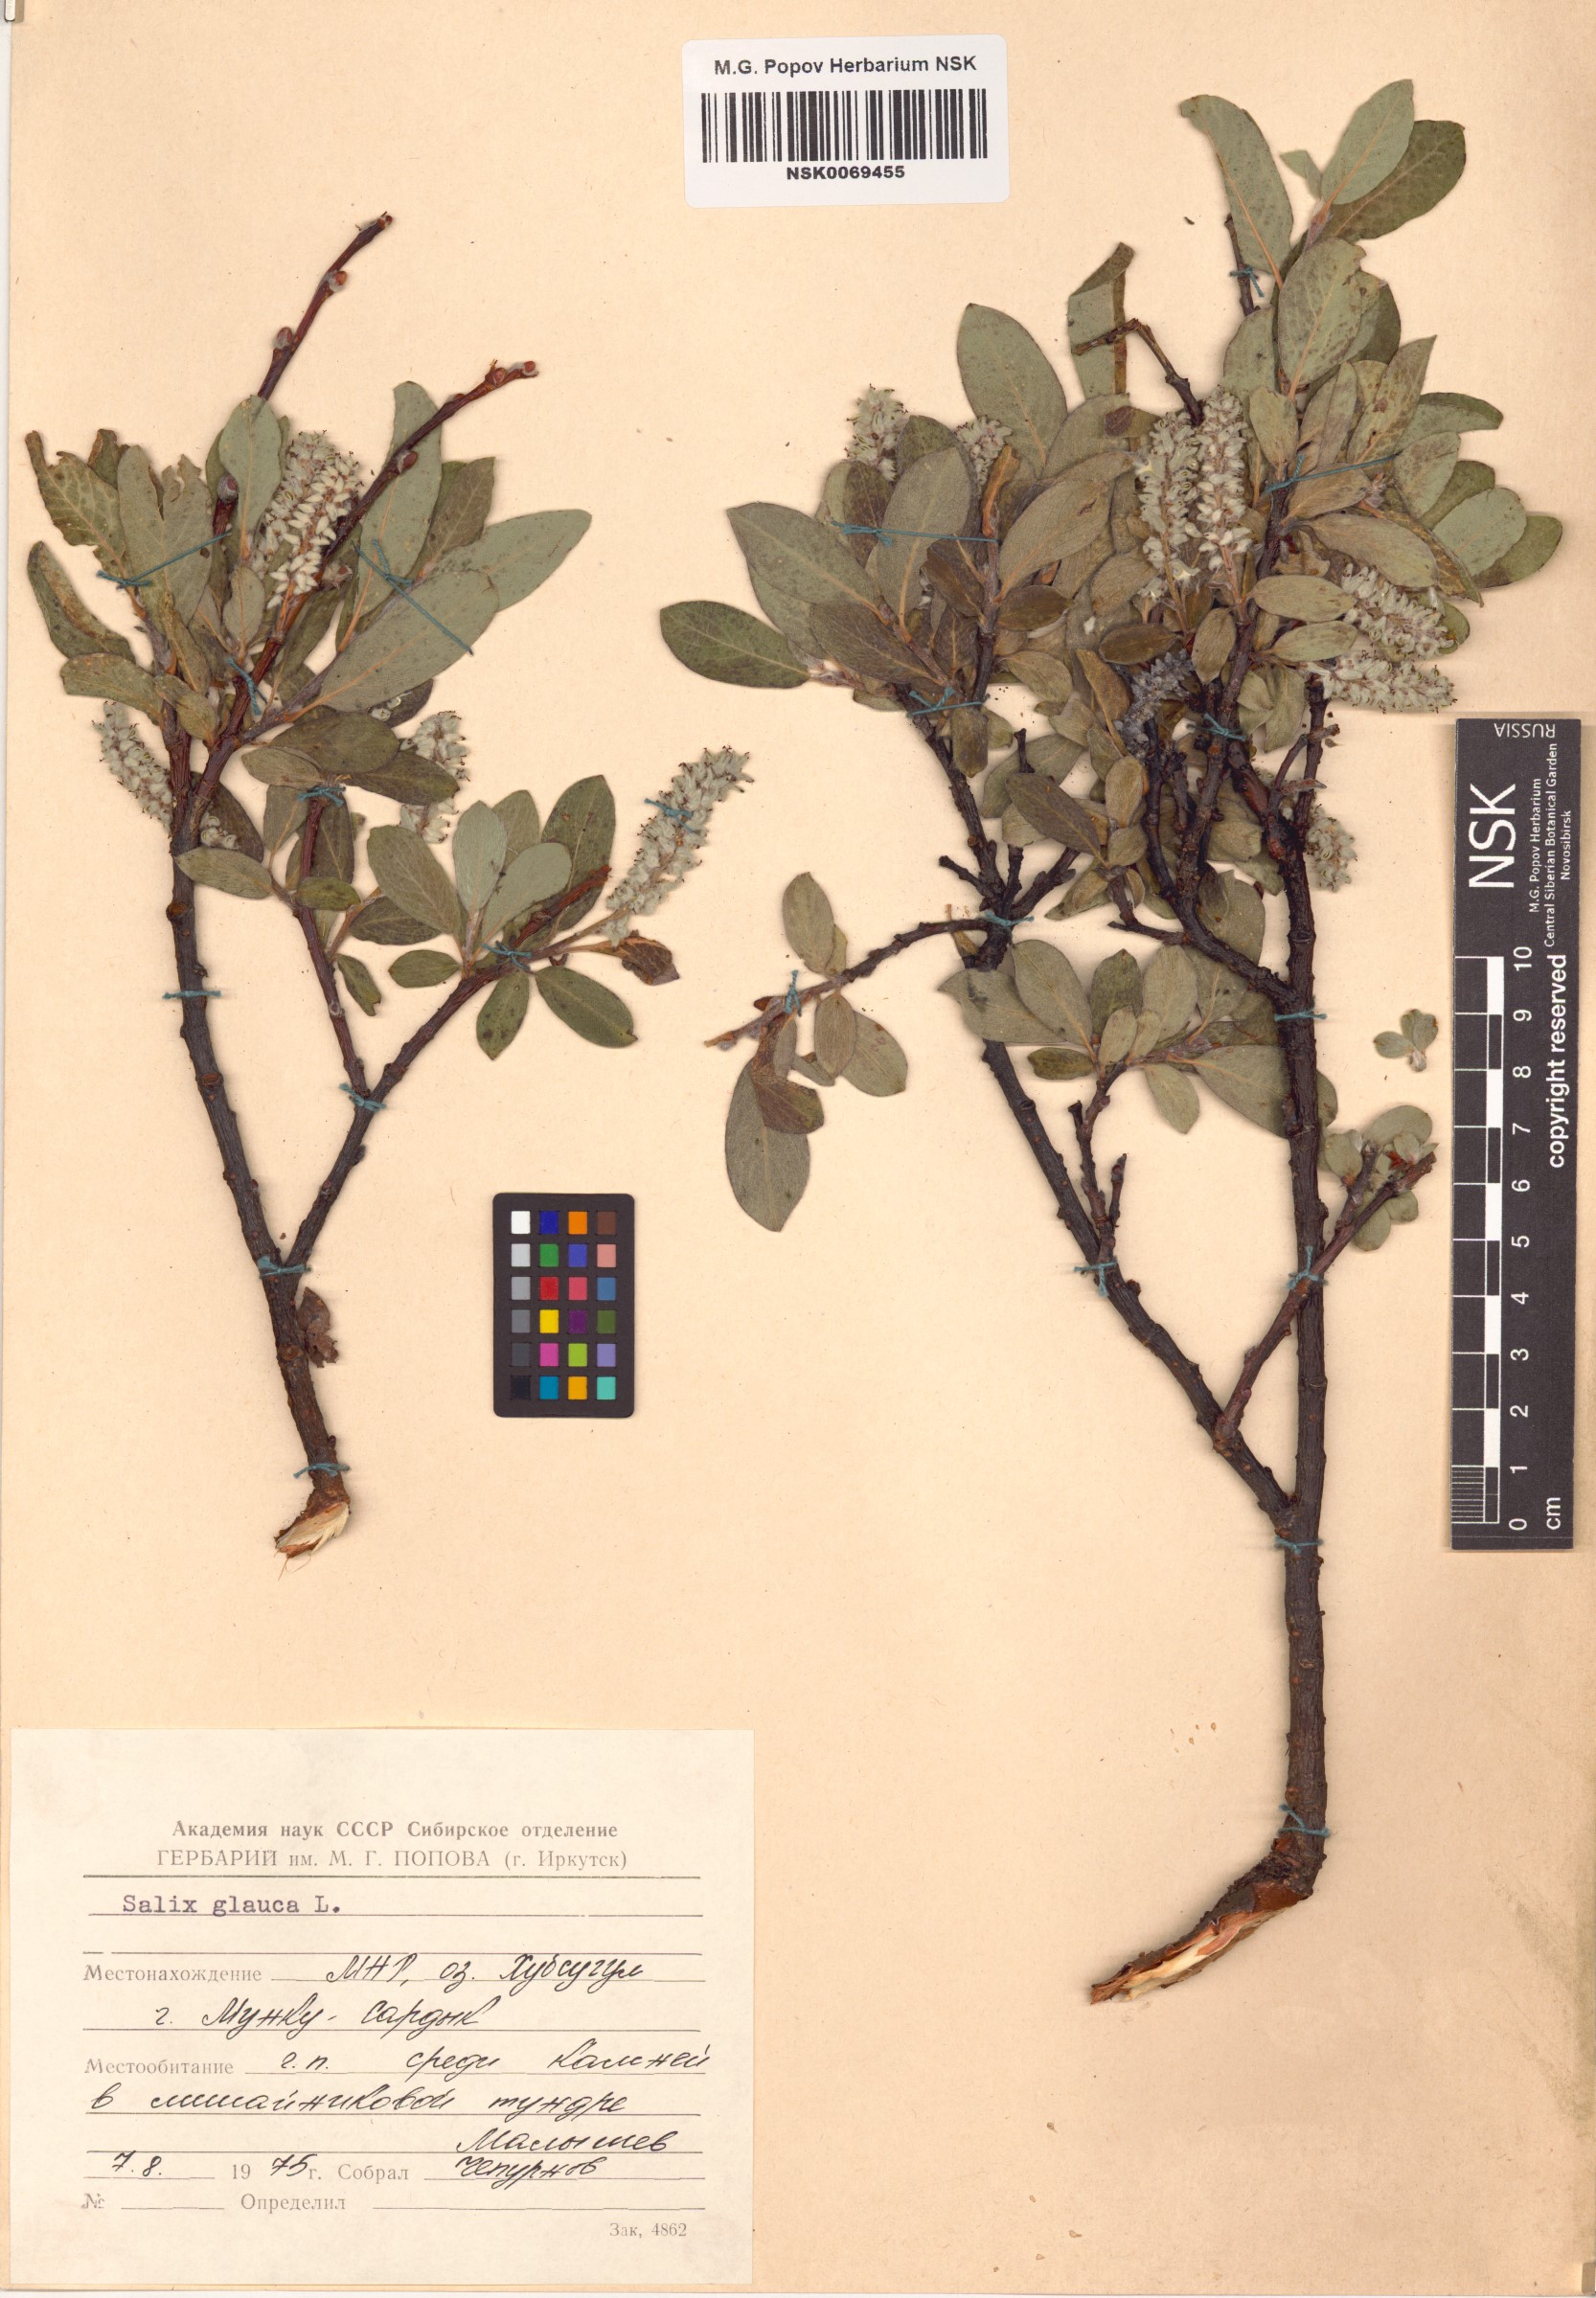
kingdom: Plantae
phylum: Tracheophyta
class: Magnoliopsida
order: Malpighiales
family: Salicaceae
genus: Salix
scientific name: Salix glauca
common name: Glaucous willow
